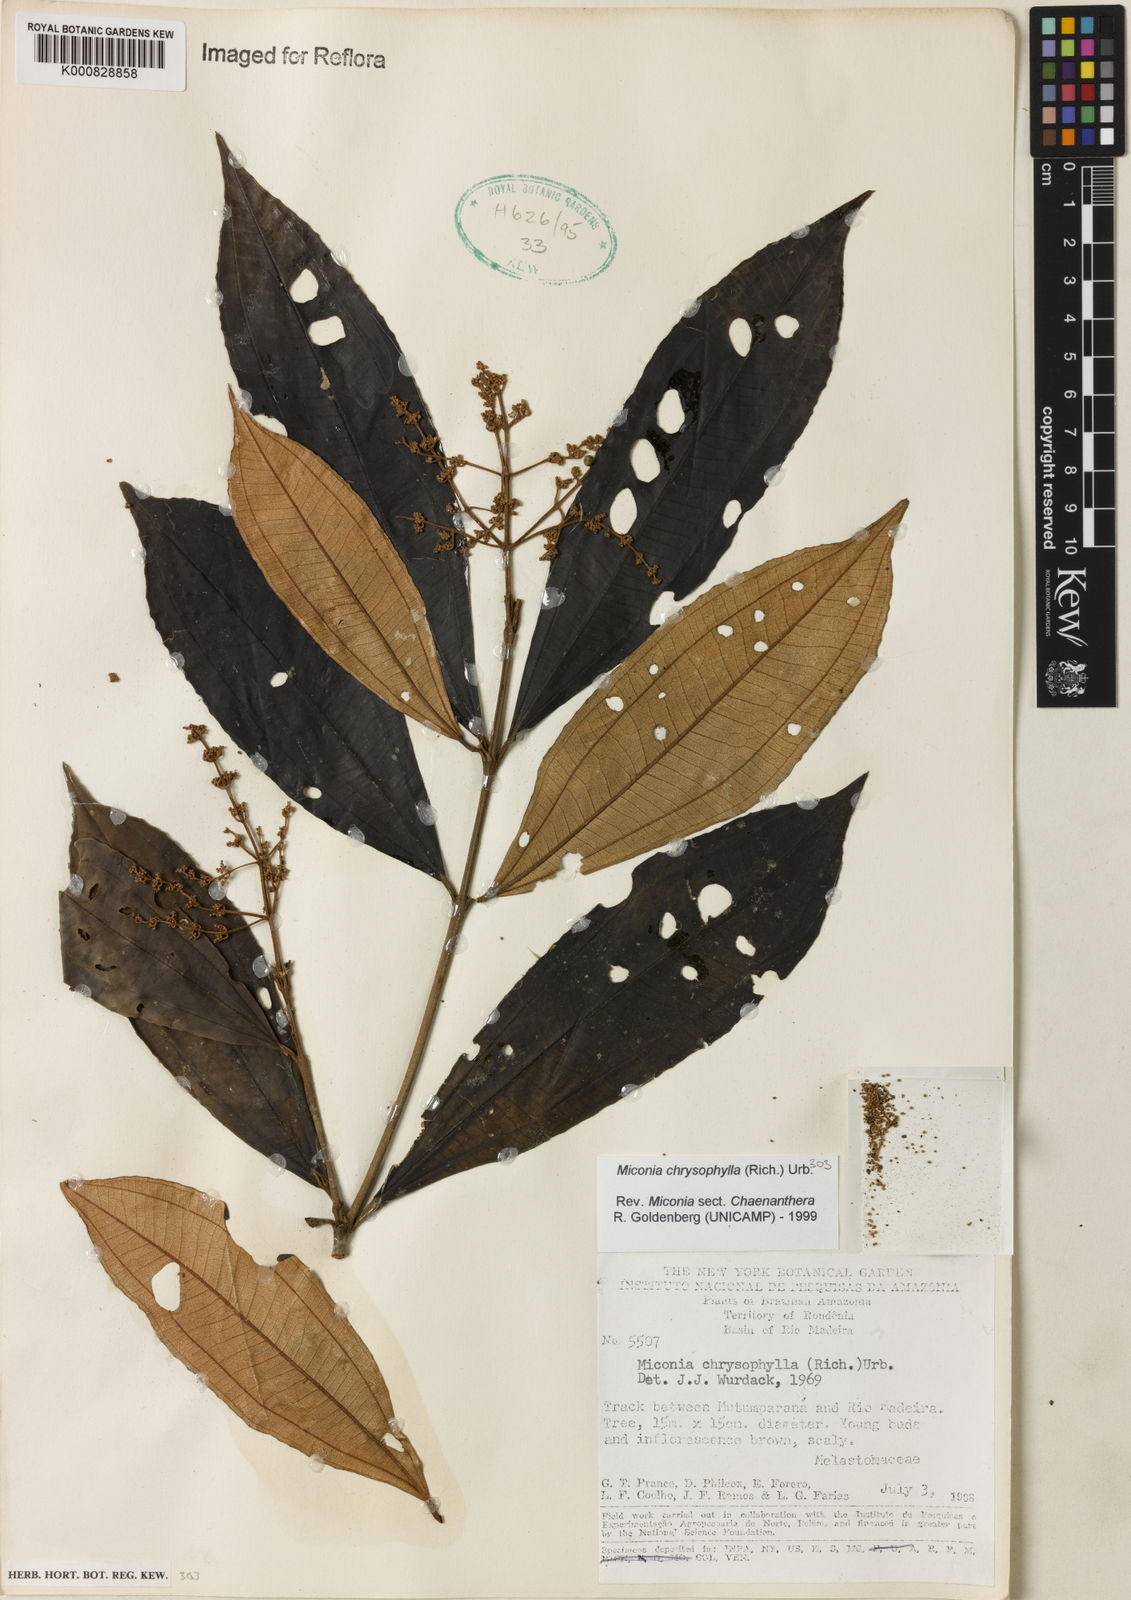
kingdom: Plantae
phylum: Tracheophyta
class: Magnoliopsida
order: Myrtales
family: Melastomataceae
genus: Miconia
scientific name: Miconia chrysophylla
